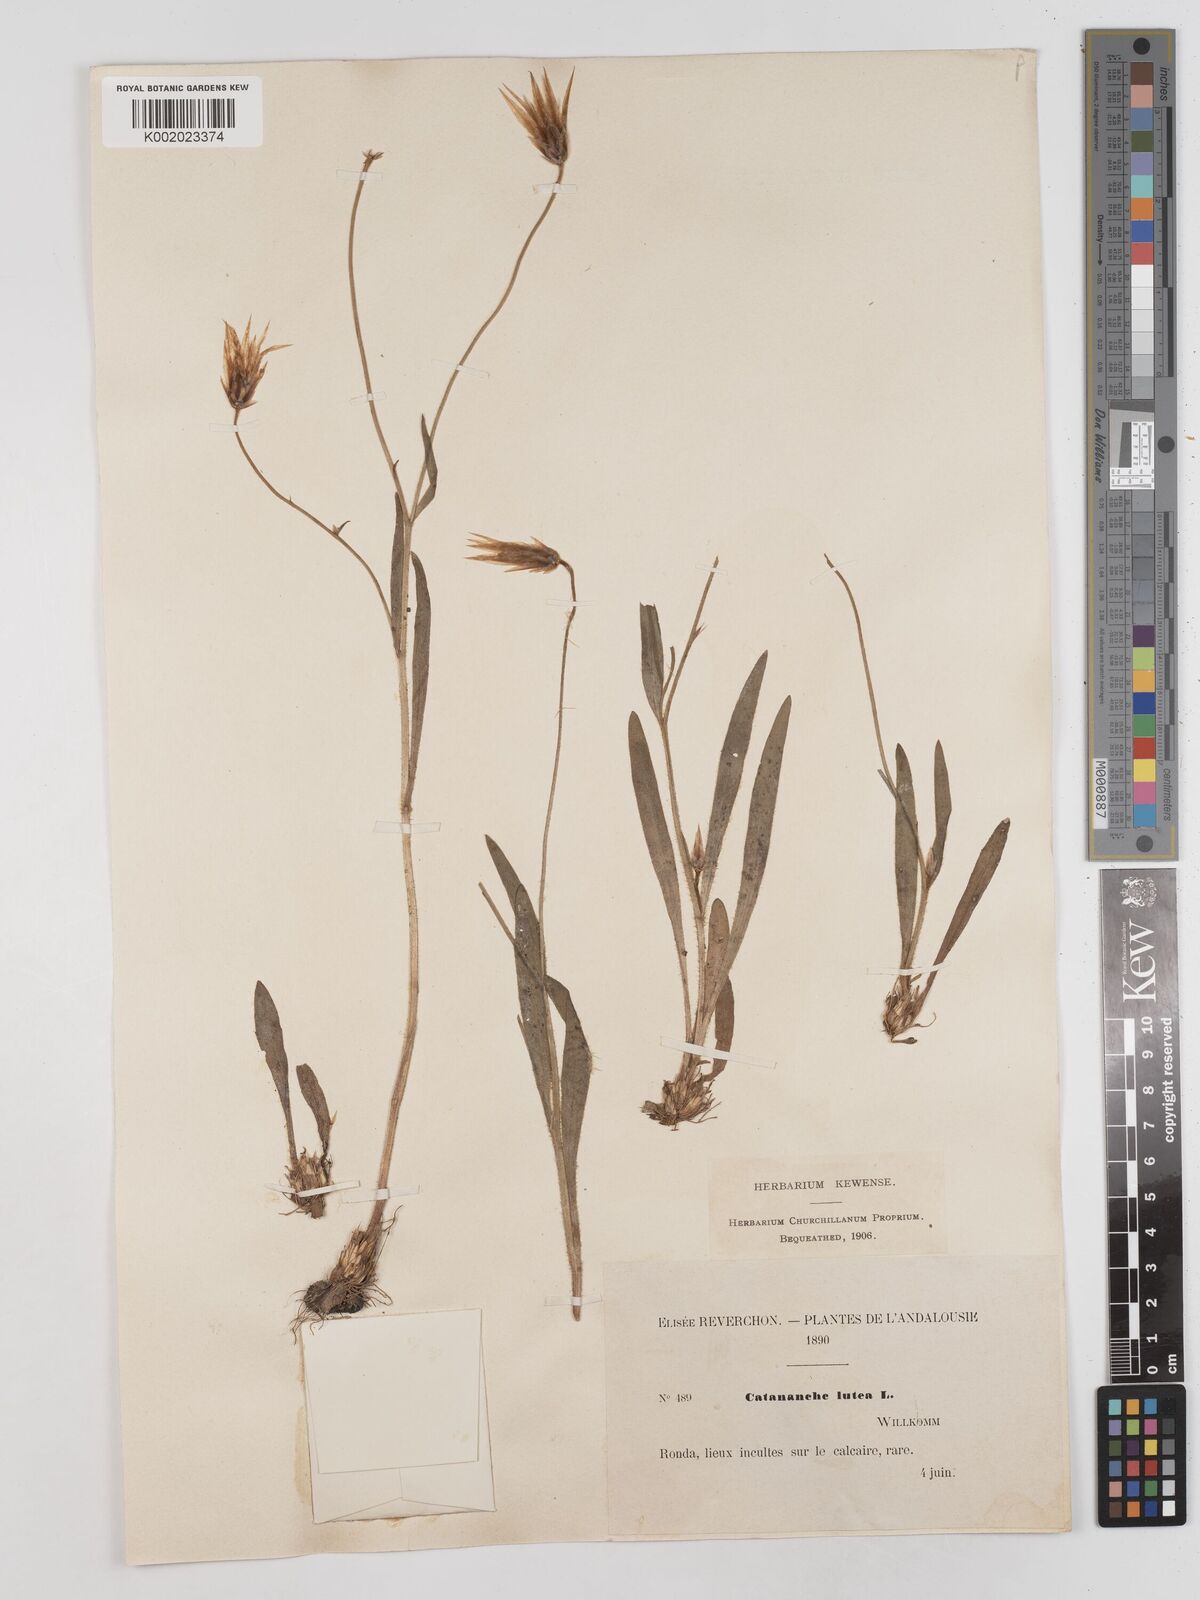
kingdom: Plantae
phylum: Tracheophyta
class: Magnoliopsida
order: Asterales
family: Asteraceae
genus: Catananche
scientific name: Catananche lutea
